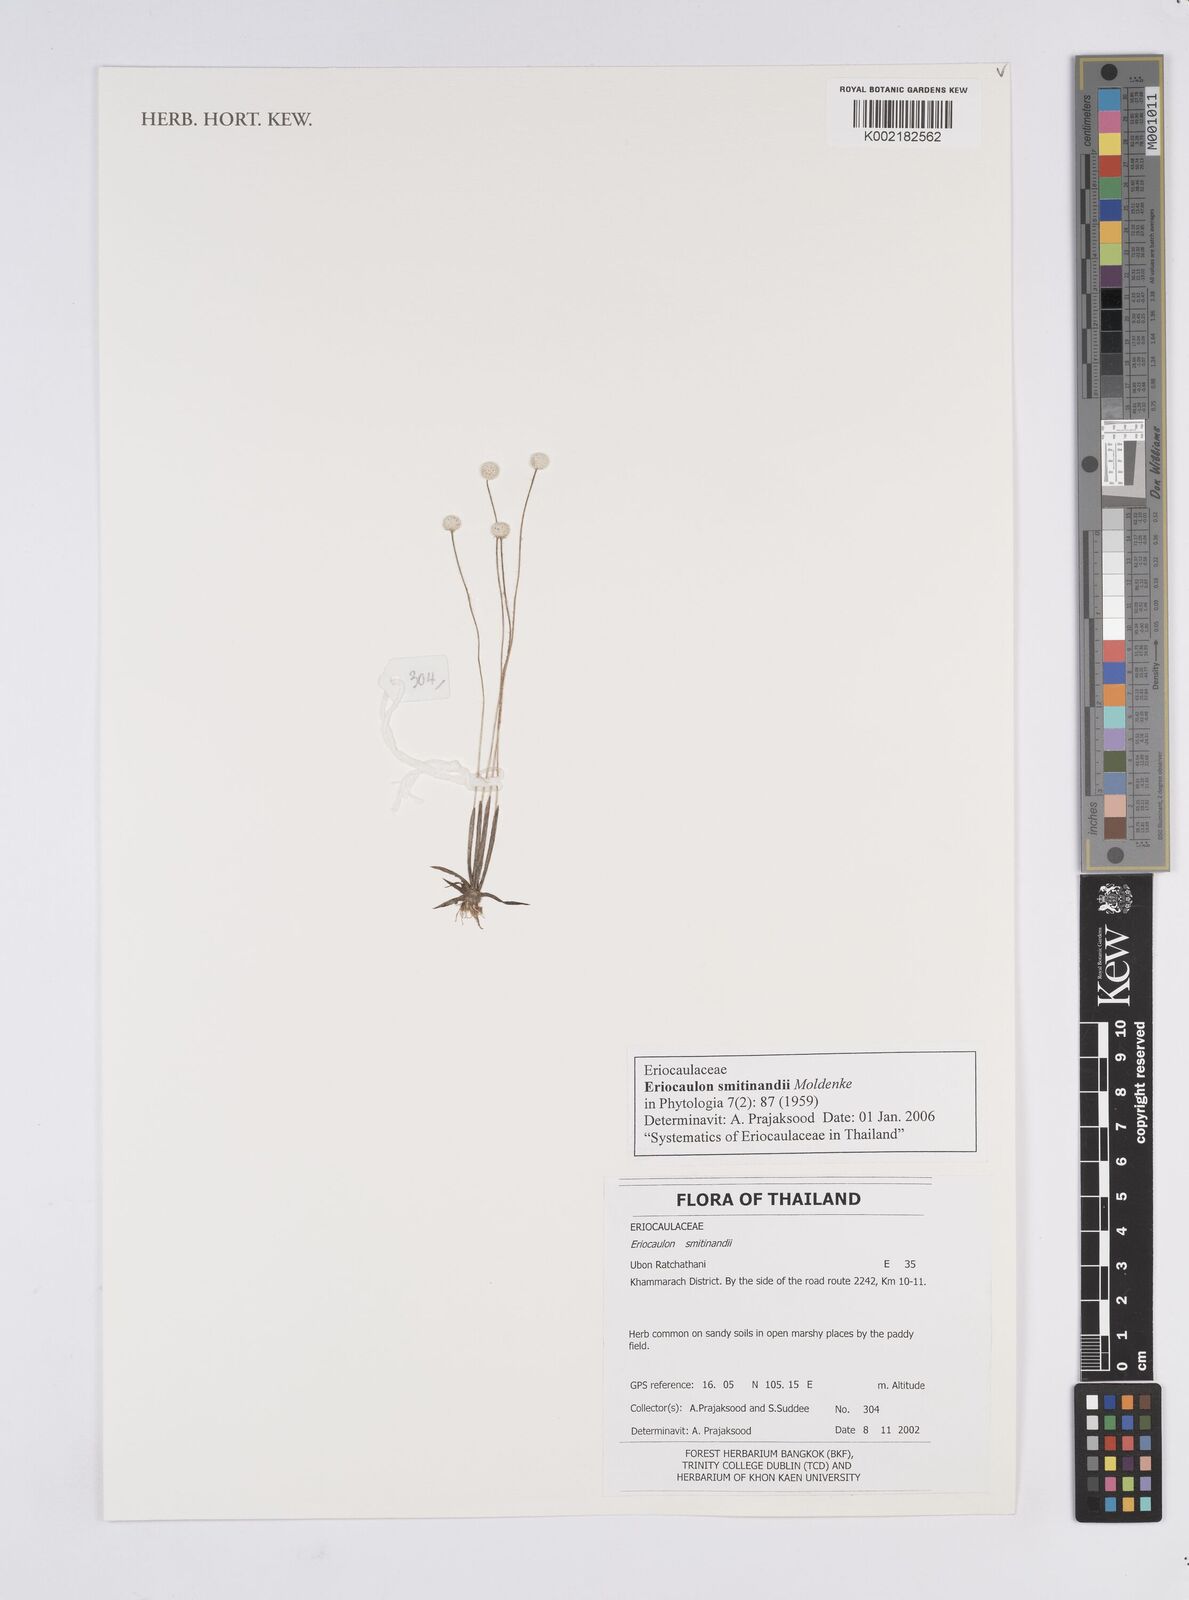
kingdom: Plantae
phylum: Tracheophyta
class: Liliopsida
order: Poales
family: Eriocaulaceae
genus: Eriocaulon
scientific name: Eriocaulon smitinandii
